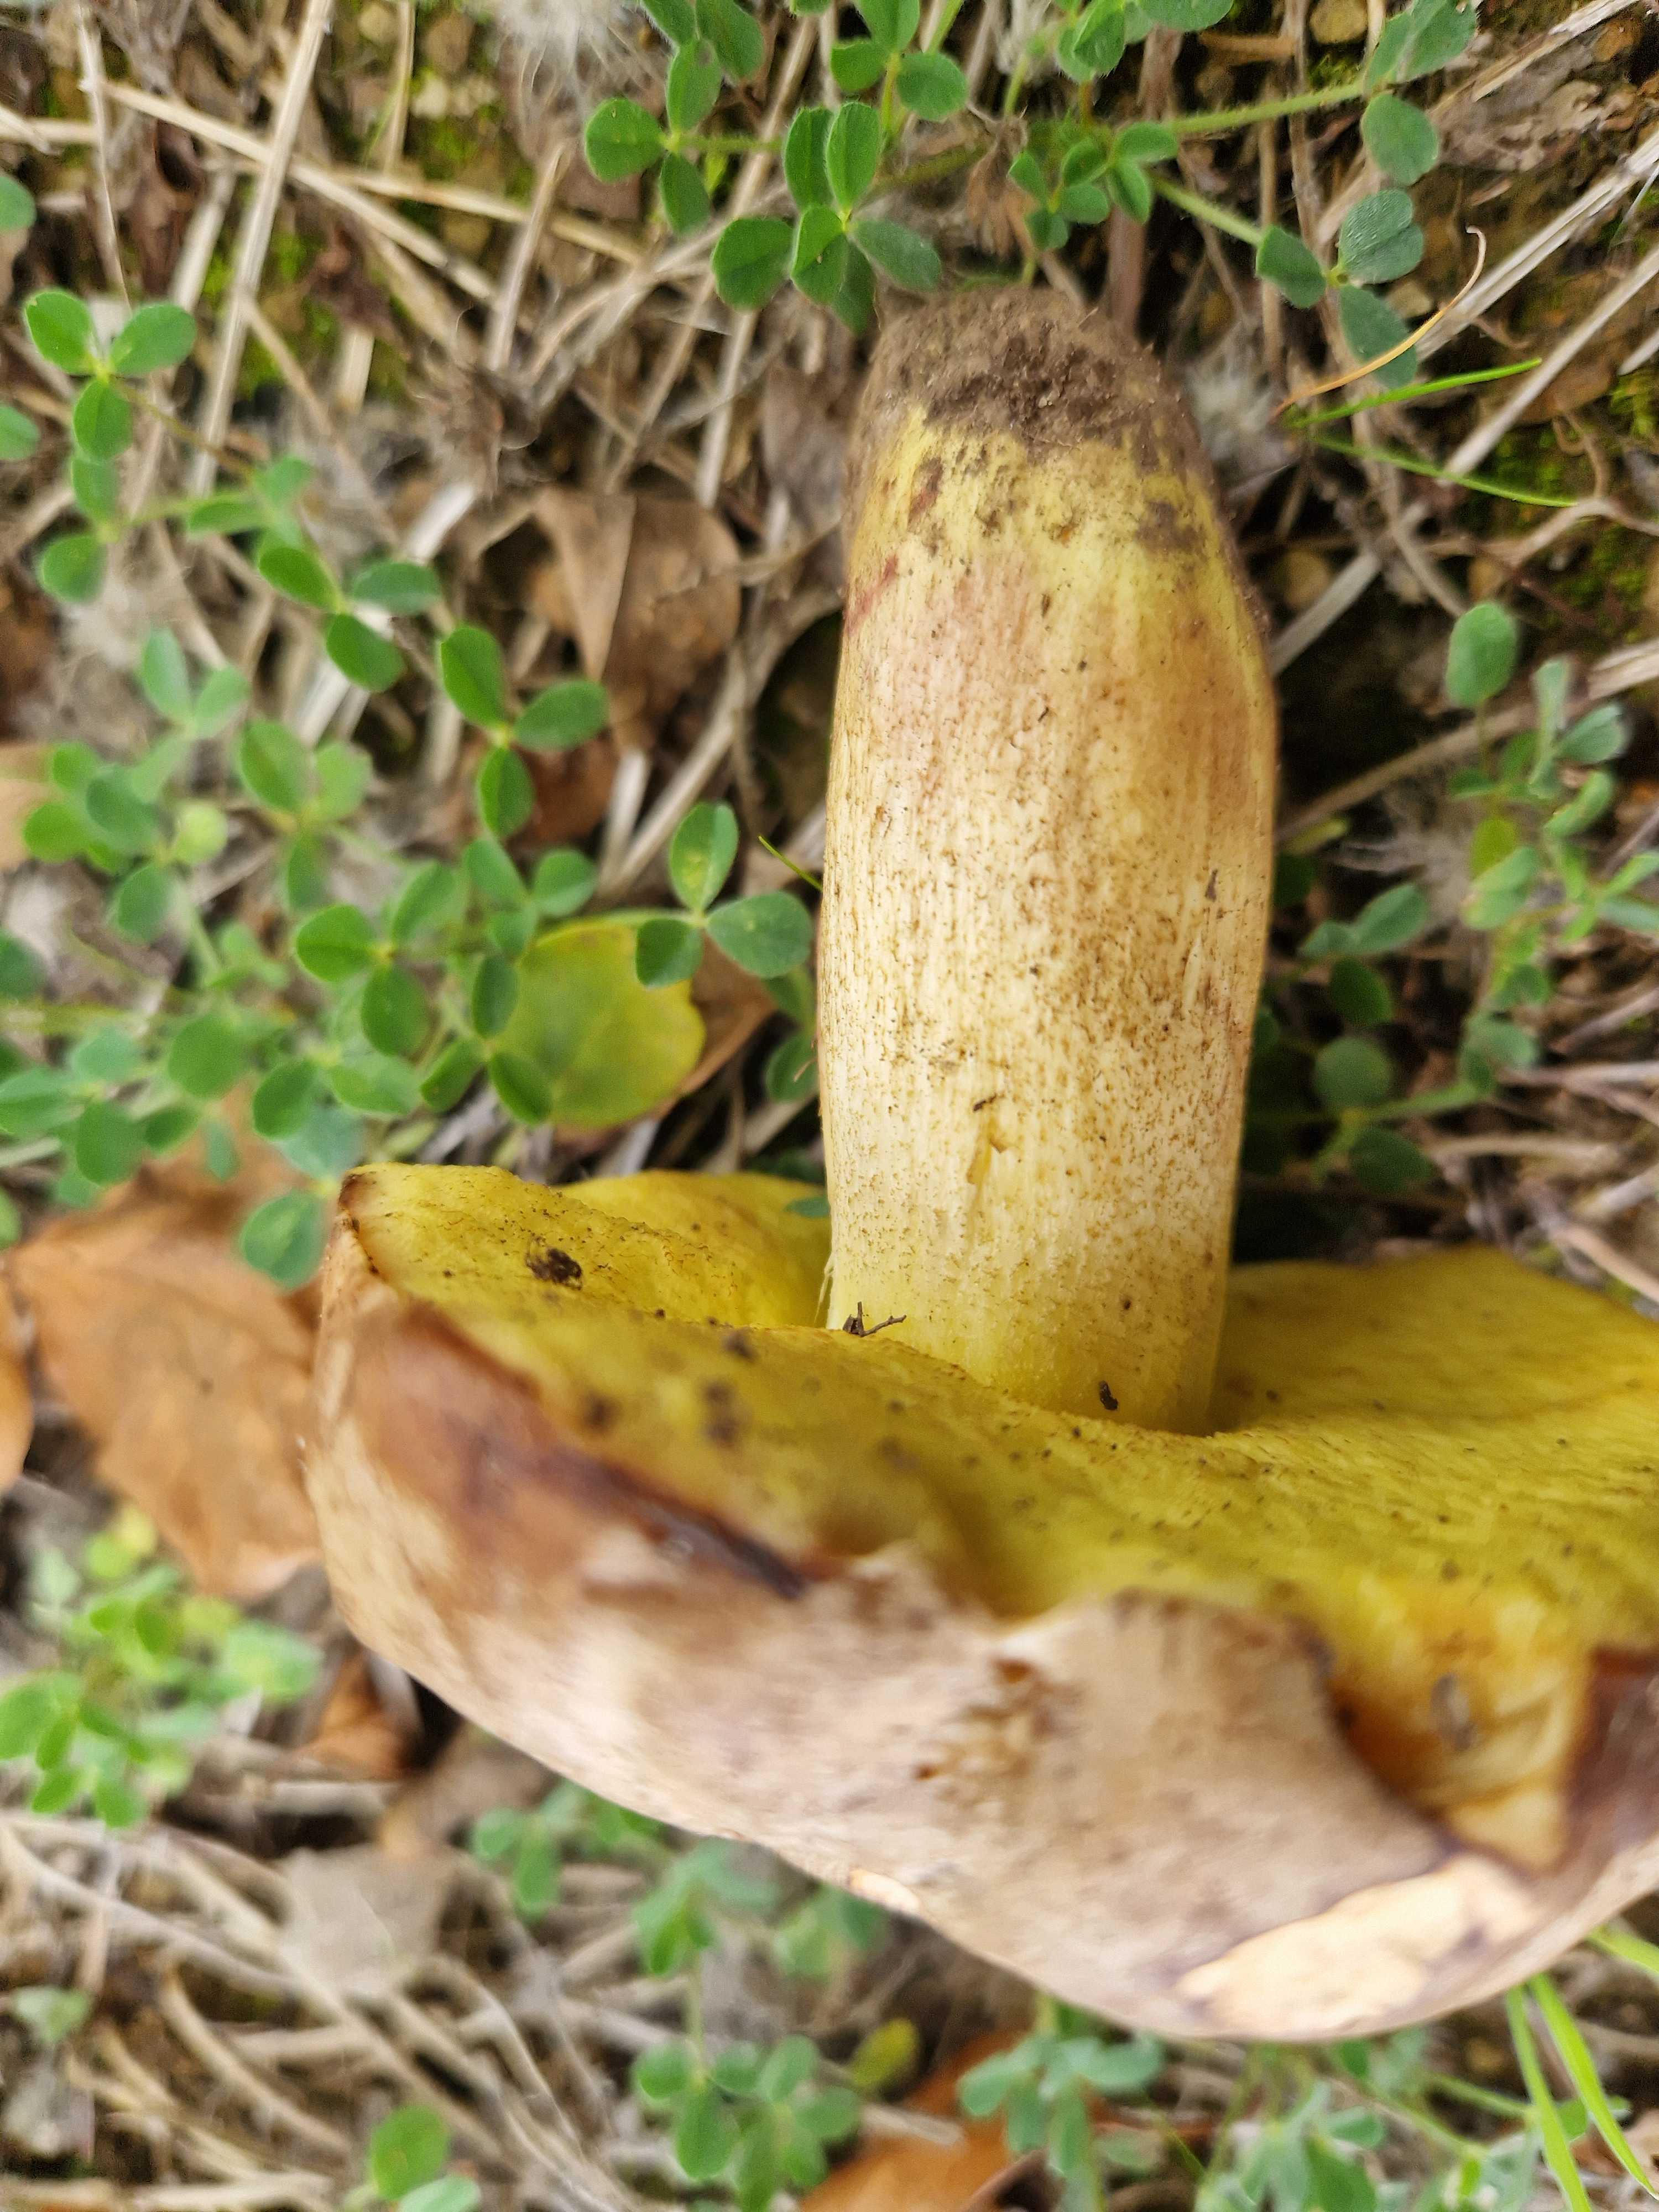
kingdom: Fungi
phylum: Basidiomycota
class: Agaricomycetes
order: Boletales
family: Boletaceae
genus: Hemileccinum
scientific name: Hemileccinum
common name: rørhat
